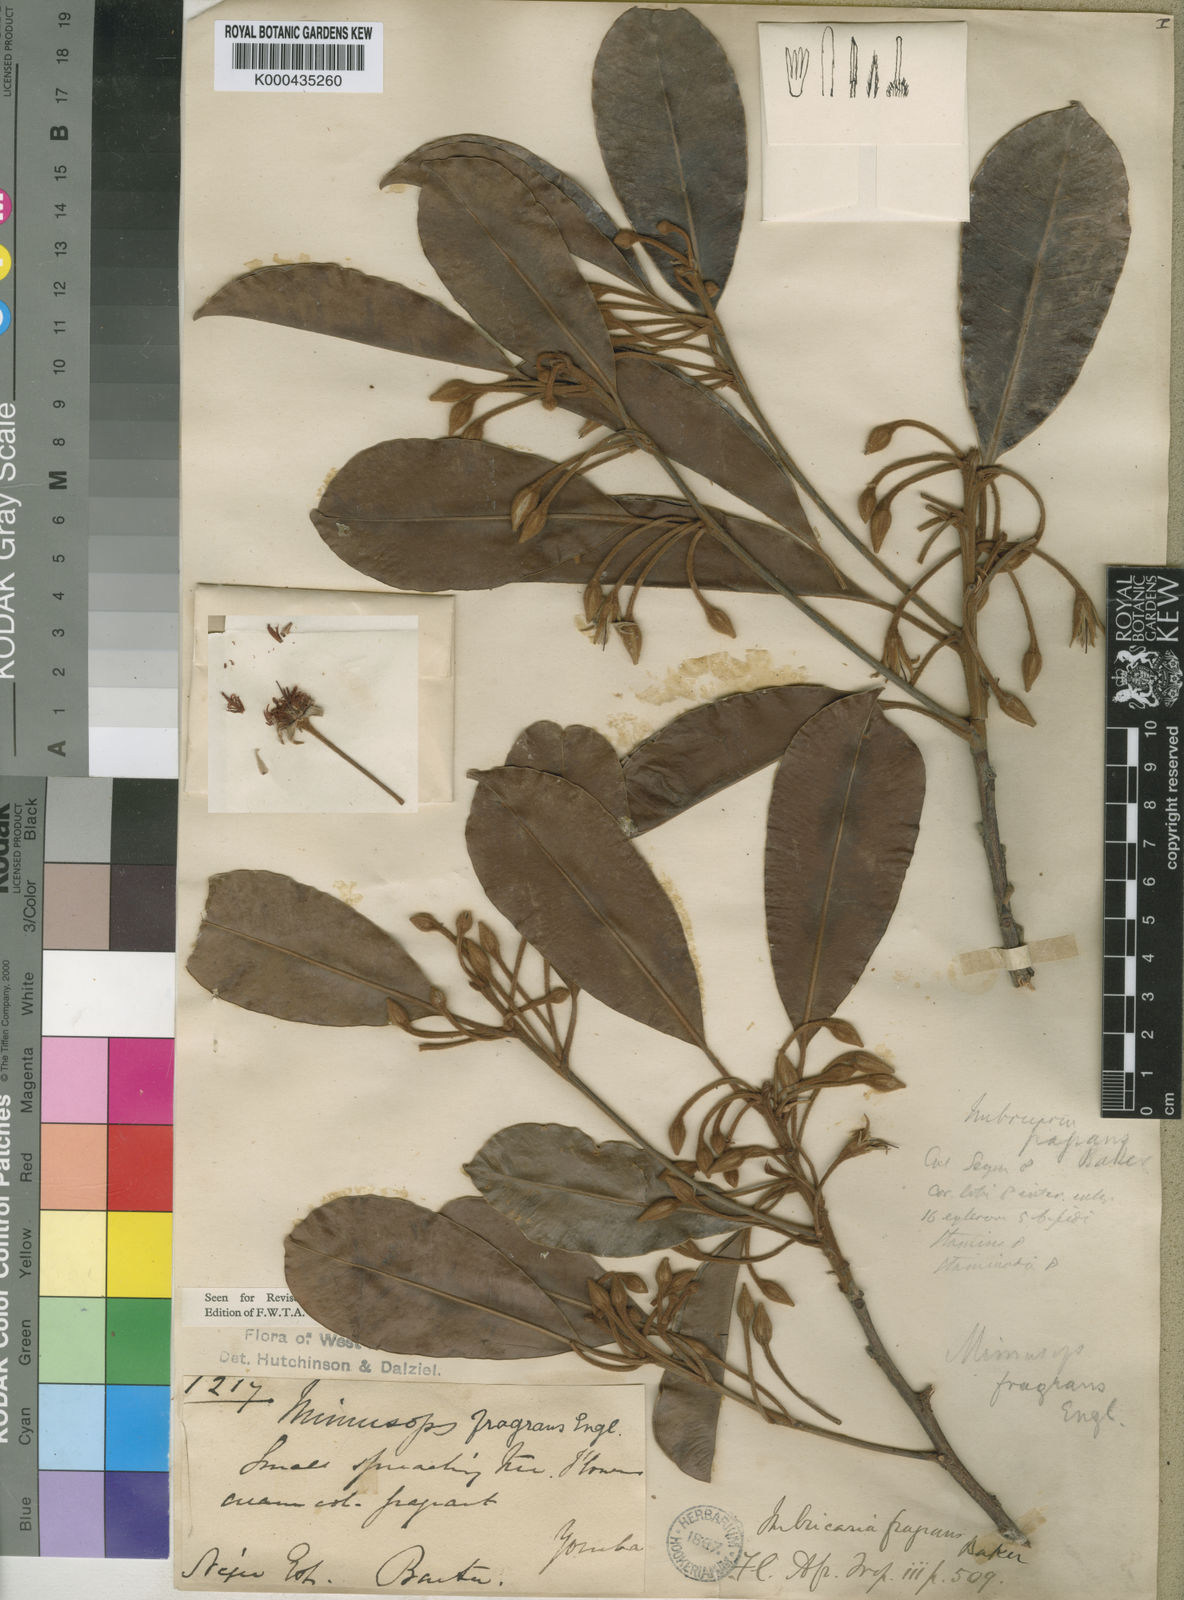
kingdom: Plantae
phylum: Tracheophyta
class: Magnoliopsida
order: Ericales
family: Sapotaceae
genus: Mimusops
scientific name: Mimusops kummel
